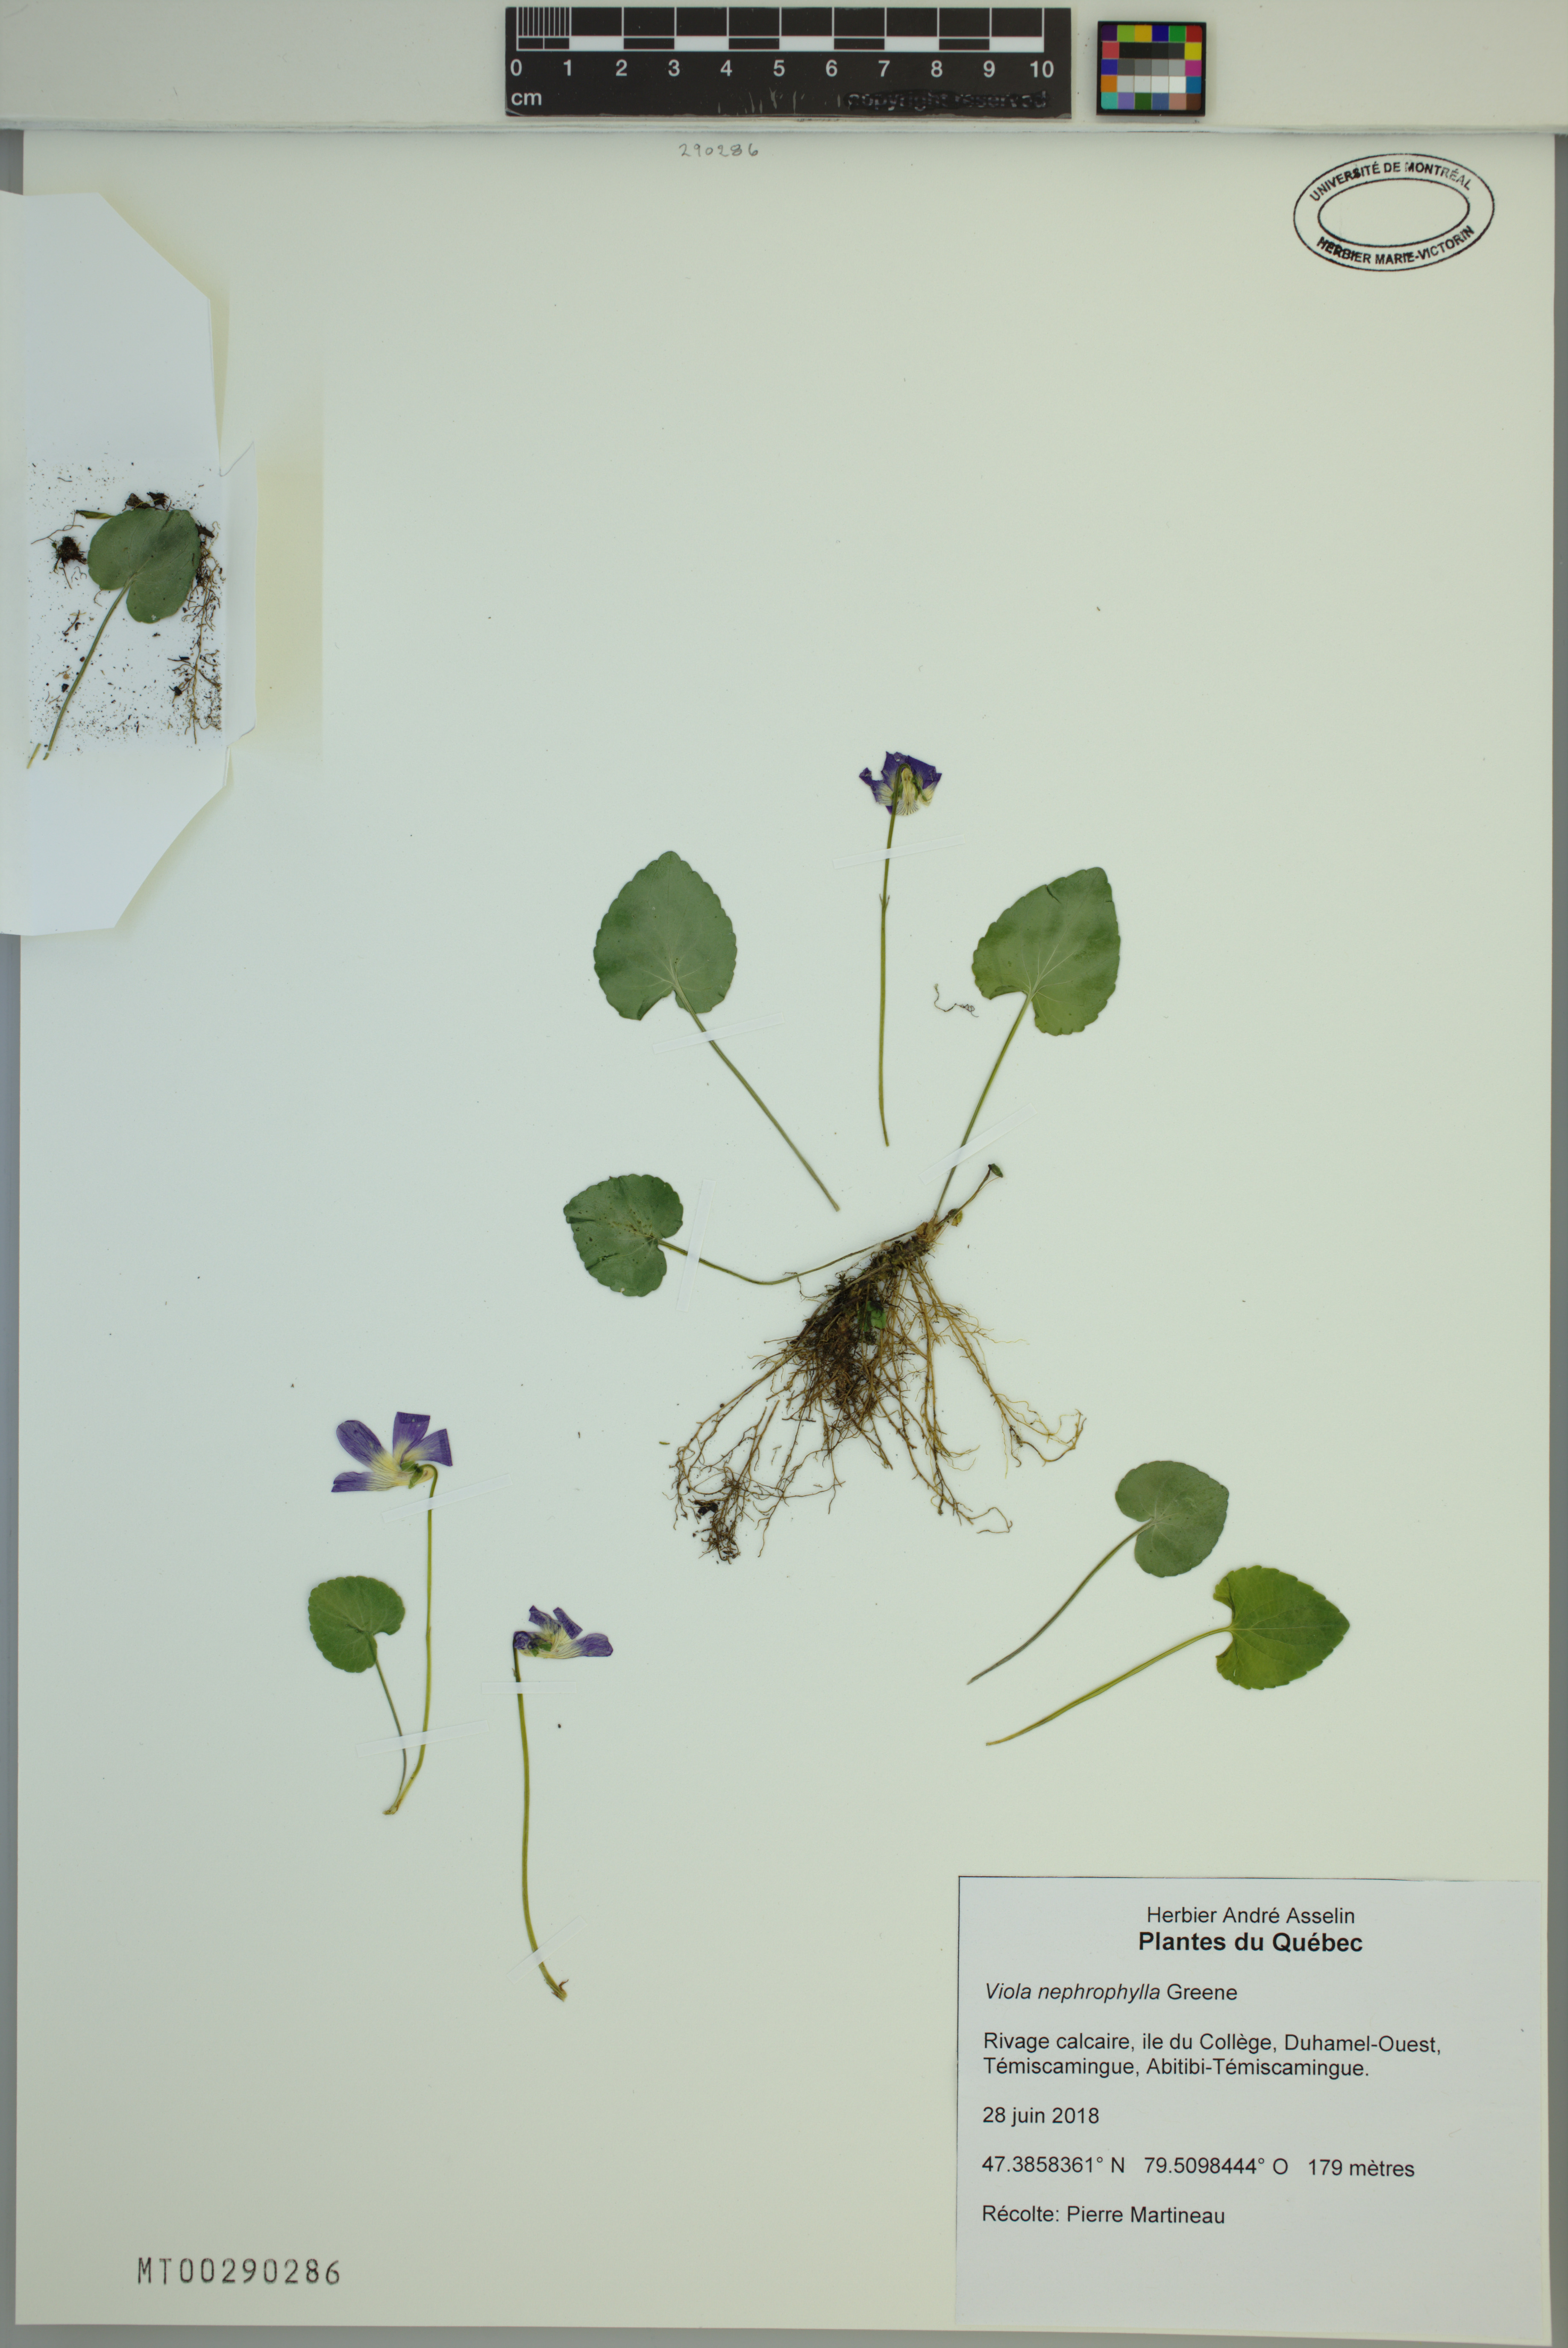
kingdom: Plantae
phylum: Tracheophyta
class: Magnoliopsida
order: Malpighiales
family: Violaceae
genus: Viola
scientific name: Viola nephrophylla
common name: Blue meadow violet
